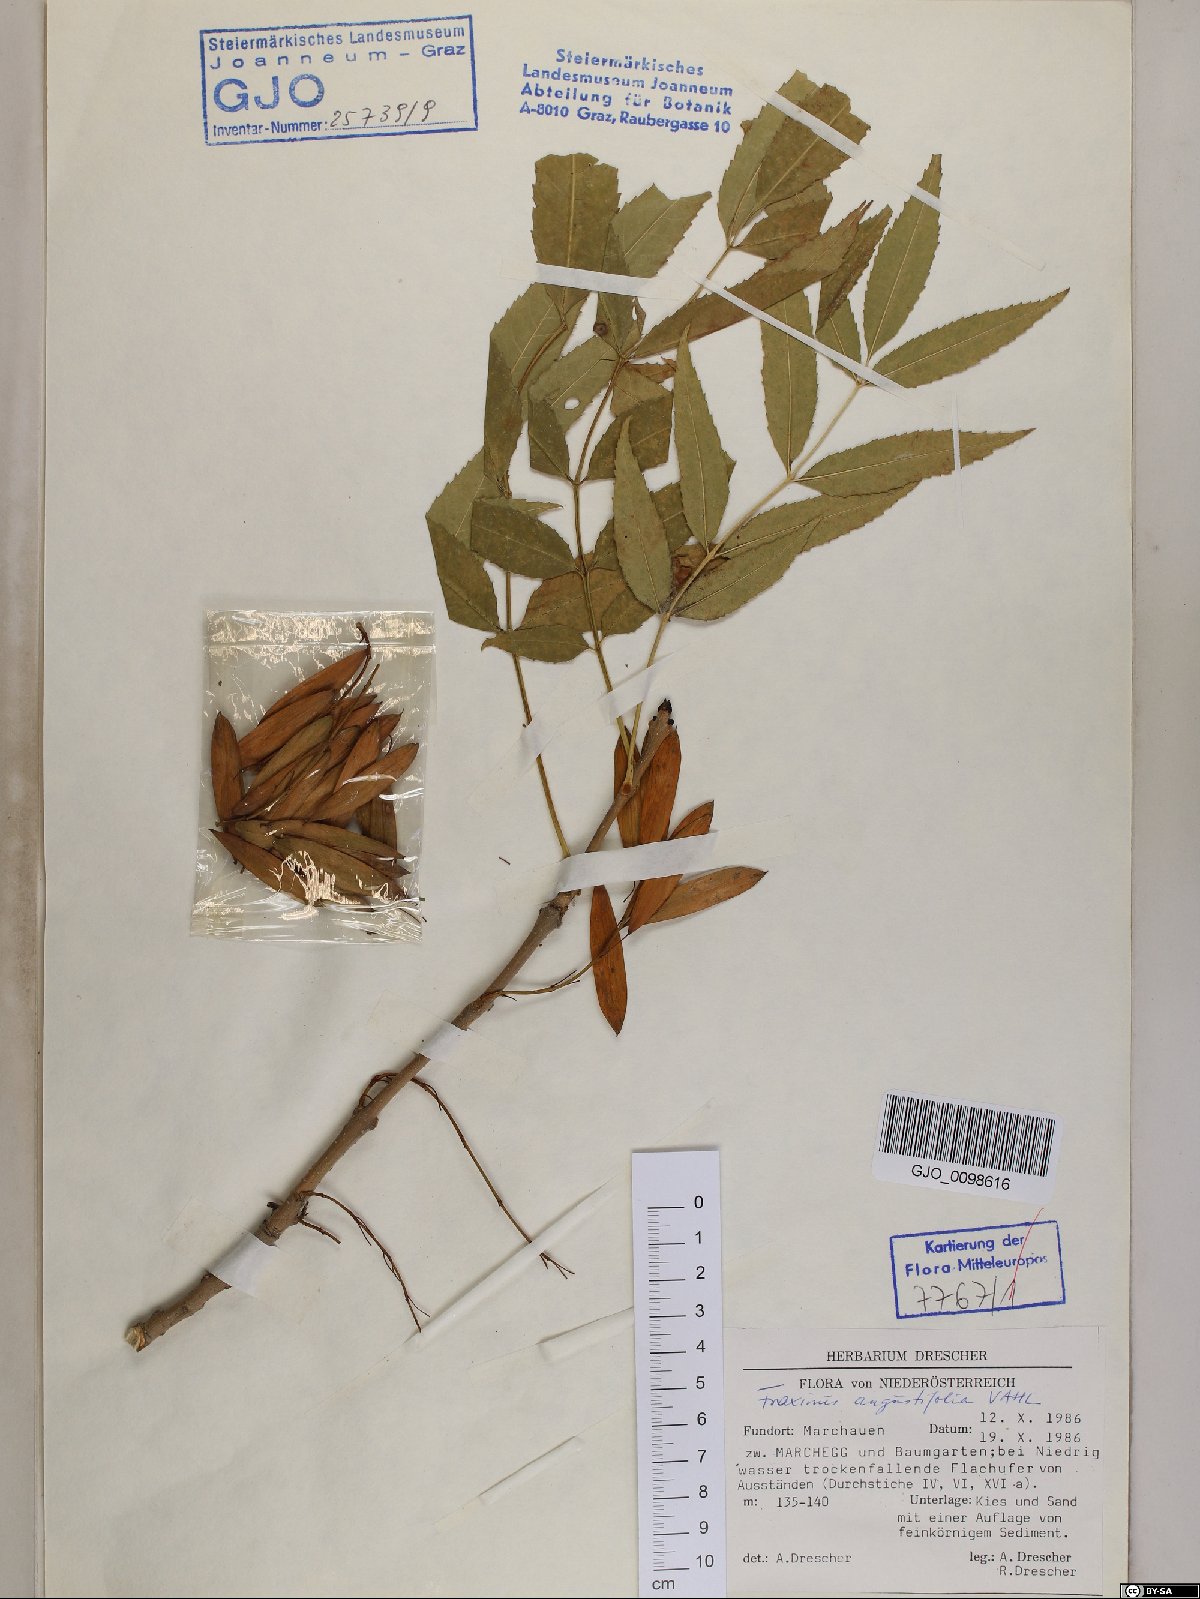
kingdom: Plantae
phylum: Tracheophyta
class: Magnoliopsida
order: Lamiales
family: Oleaceae
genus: Fraxinus
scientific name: Fraxinus angustifolia
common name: Narrow-leafed ash
